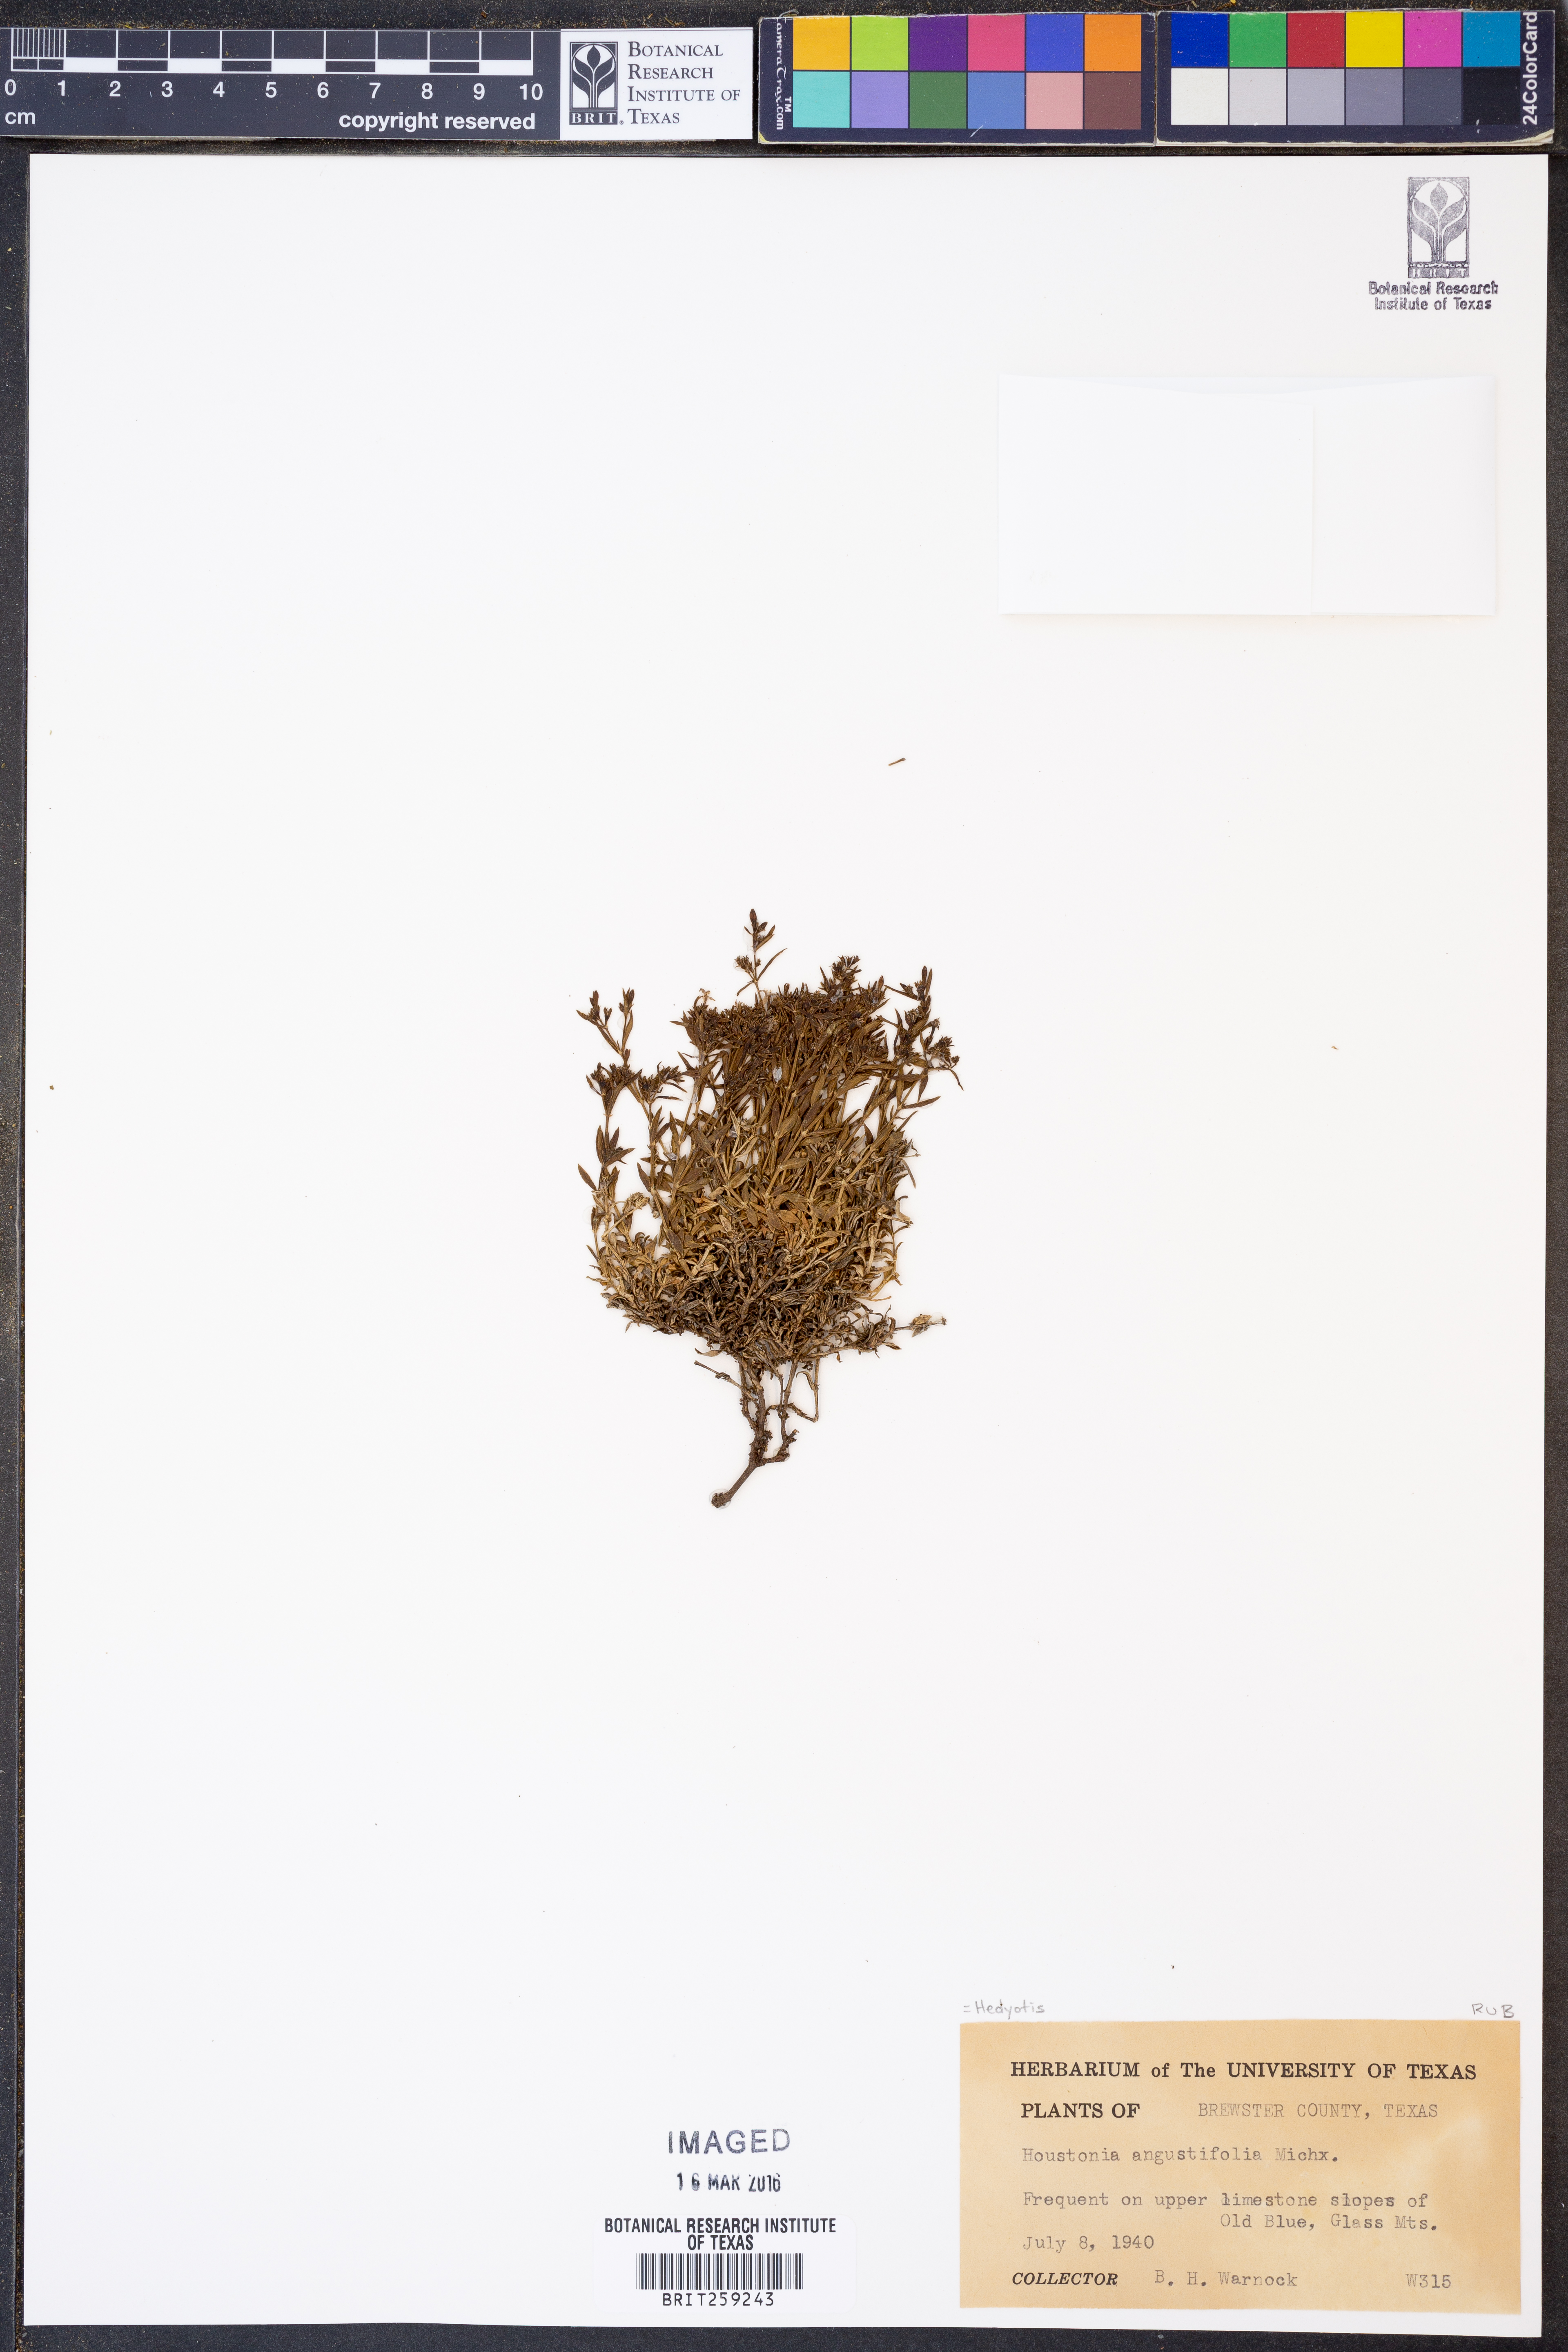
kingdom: Plantae
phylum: Tracheophyta
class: Magnoliopsida
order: Gentianales
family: Rubiaceae
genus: Stenaria
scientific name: Stenaria nigricans
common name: Diamondflowers
